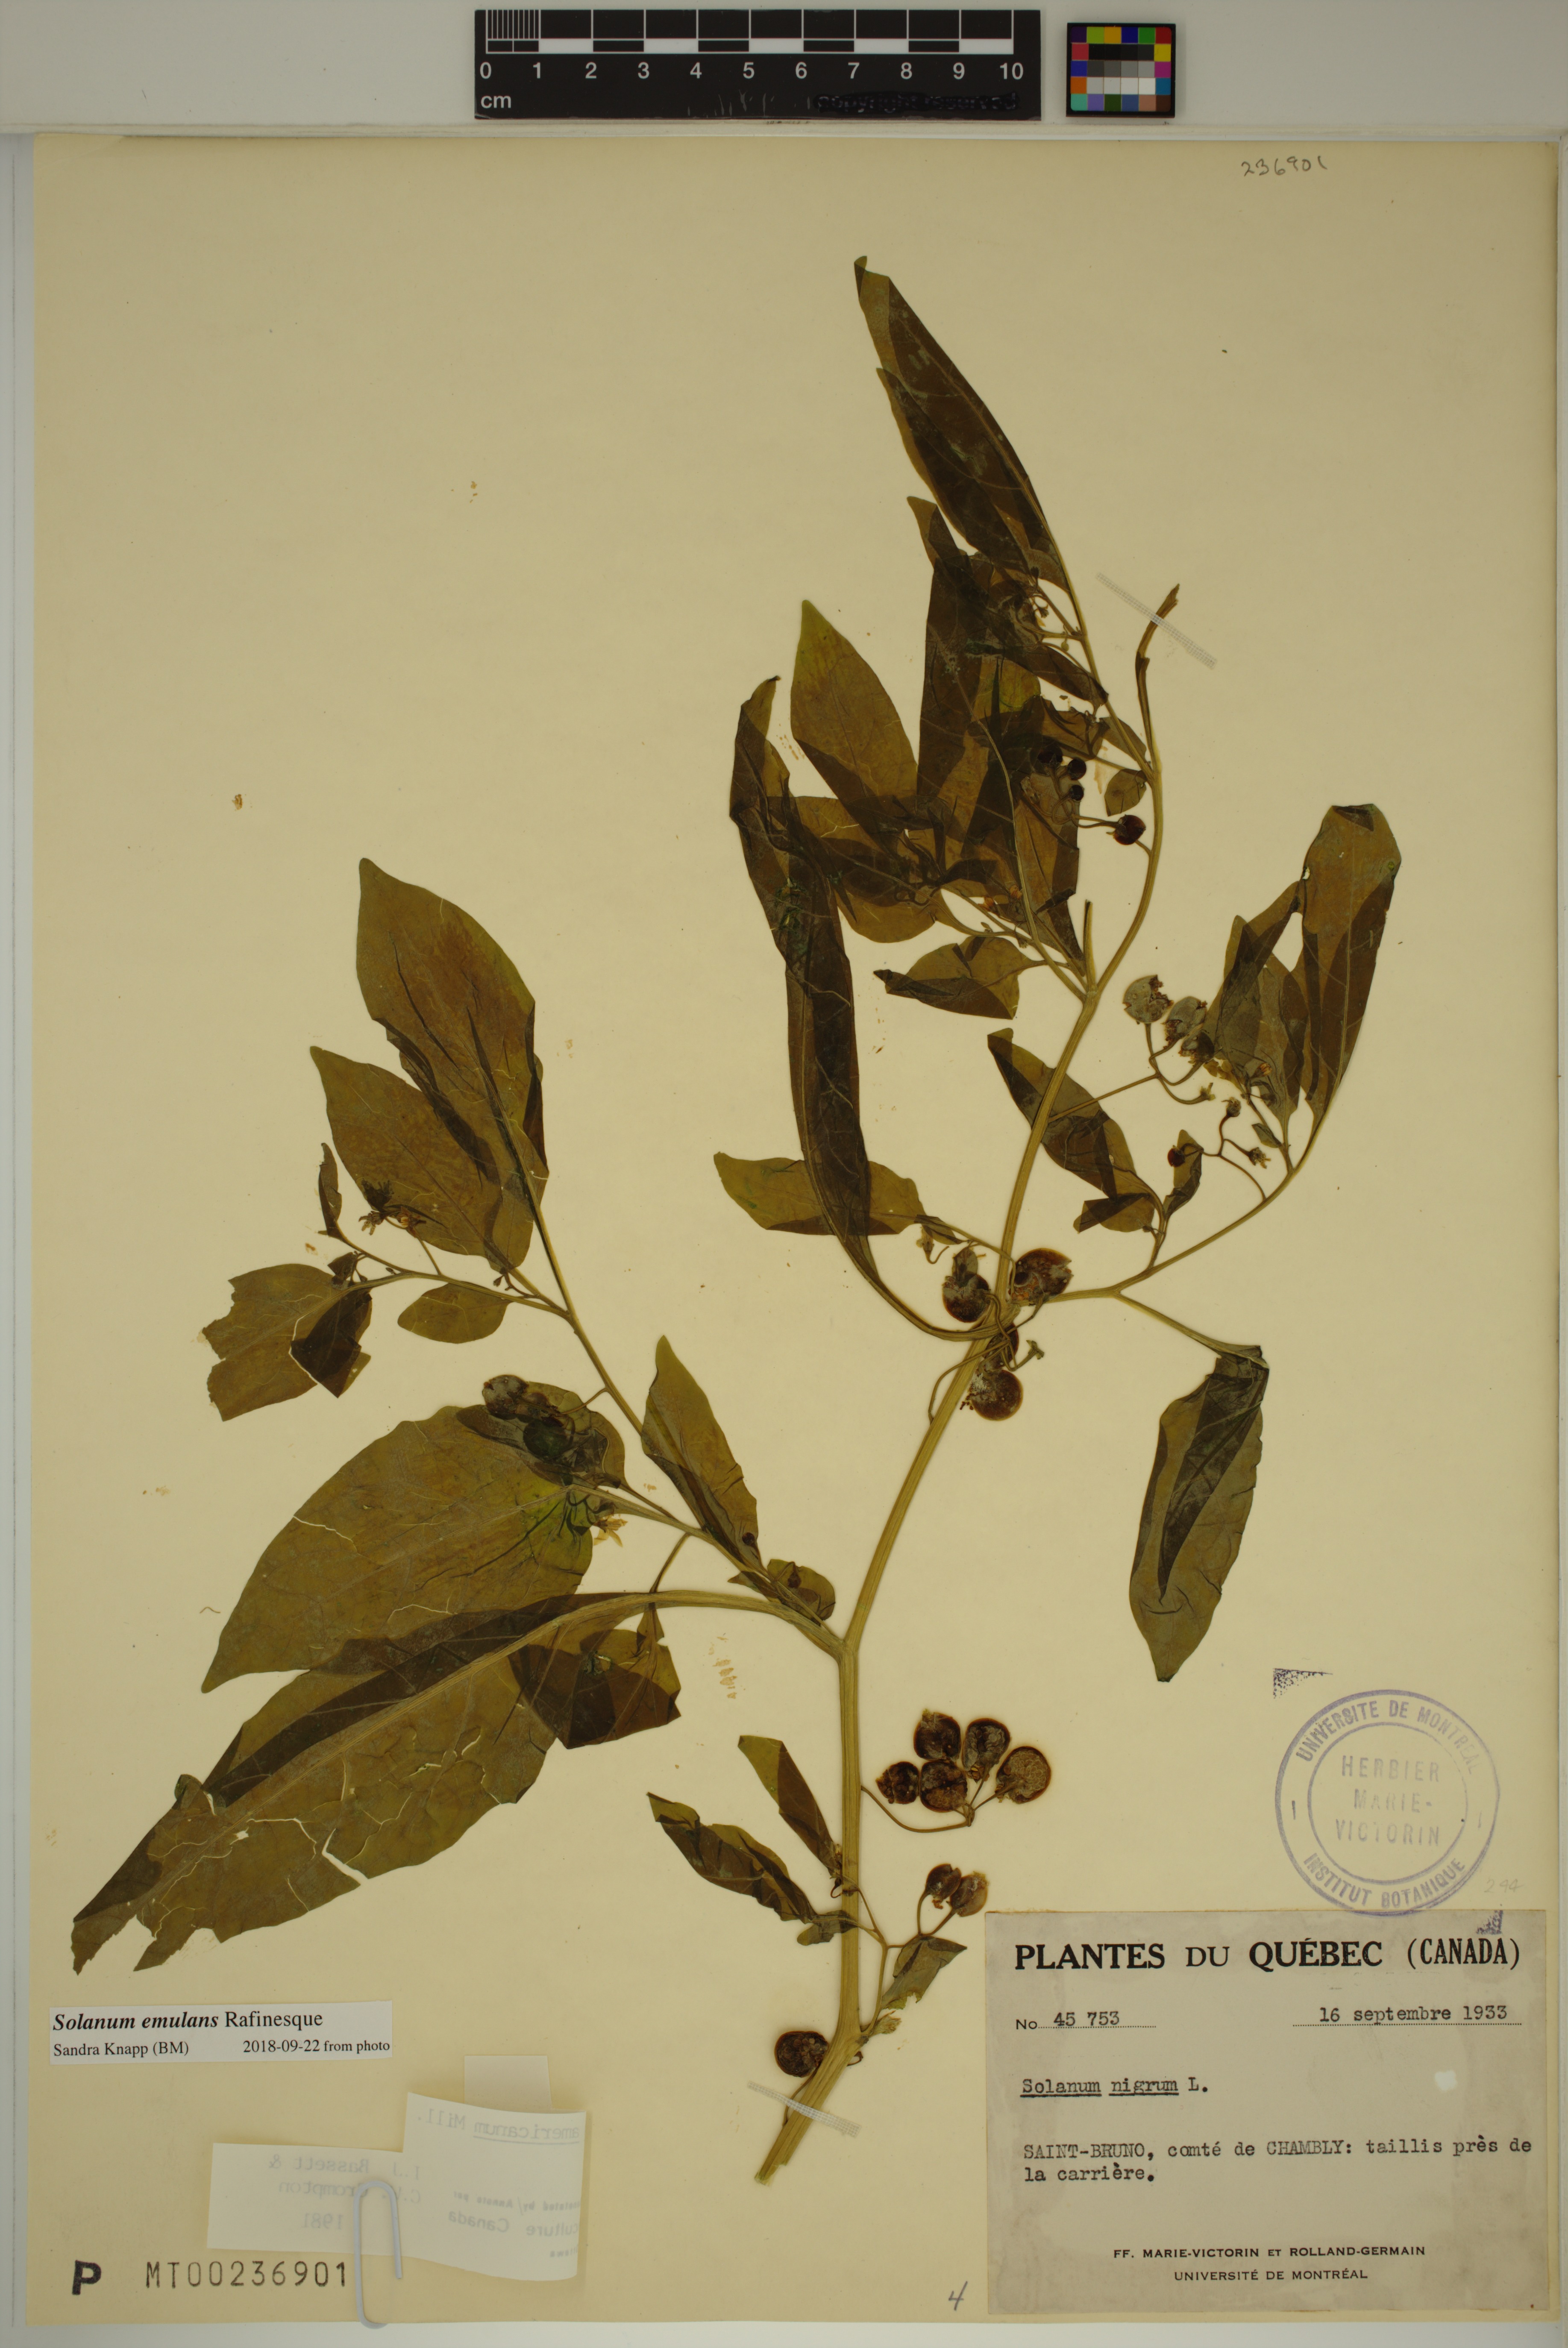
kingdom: Plantae
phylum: Tracheophyta
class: Magnoliopsida
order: Solanales
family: Solanaceae
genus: Solanum
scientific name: Solanum emulans
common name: Eastern black nightshade
